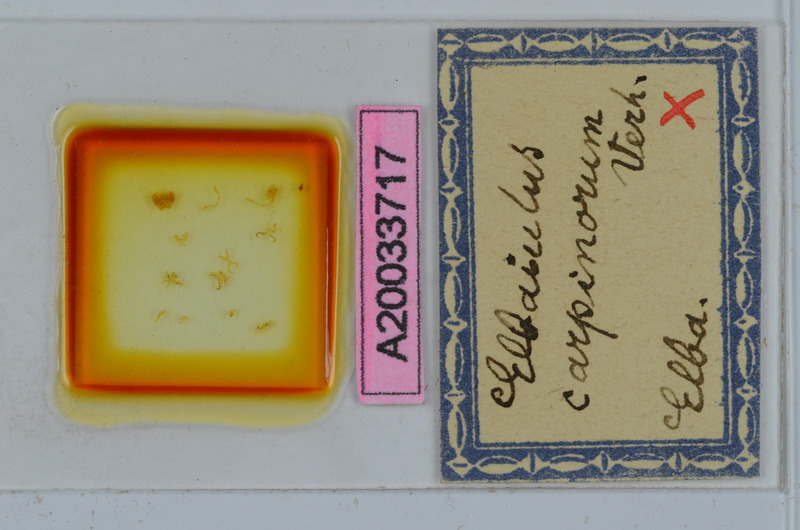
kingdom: Animalia
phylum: Arthropoda
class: Diplopoda
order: Julida
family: Julidae
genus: Elbaiulus
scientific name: Elbaiulus carpinorum
